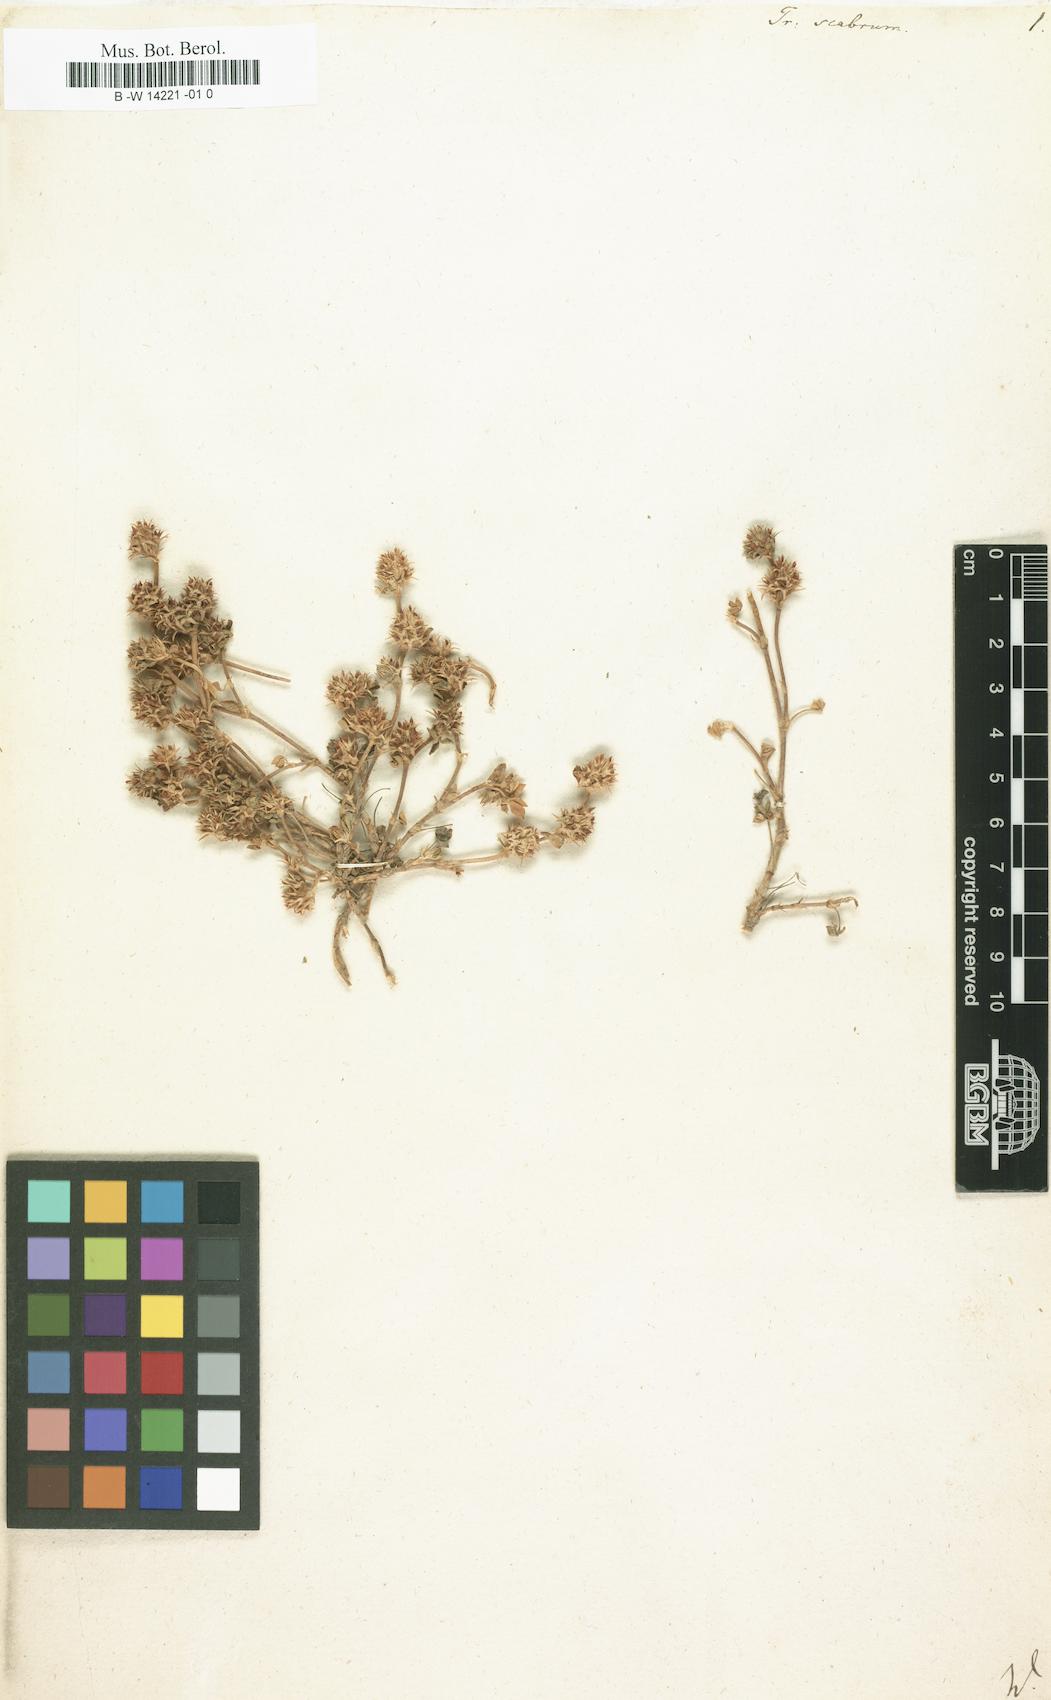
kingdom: Plantae
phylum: Tracheophyta
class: Magnoliopsida
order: Fabales
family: Fabaceae
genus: Trifolium
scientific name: Trifolium scabrum
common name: Rough clover
